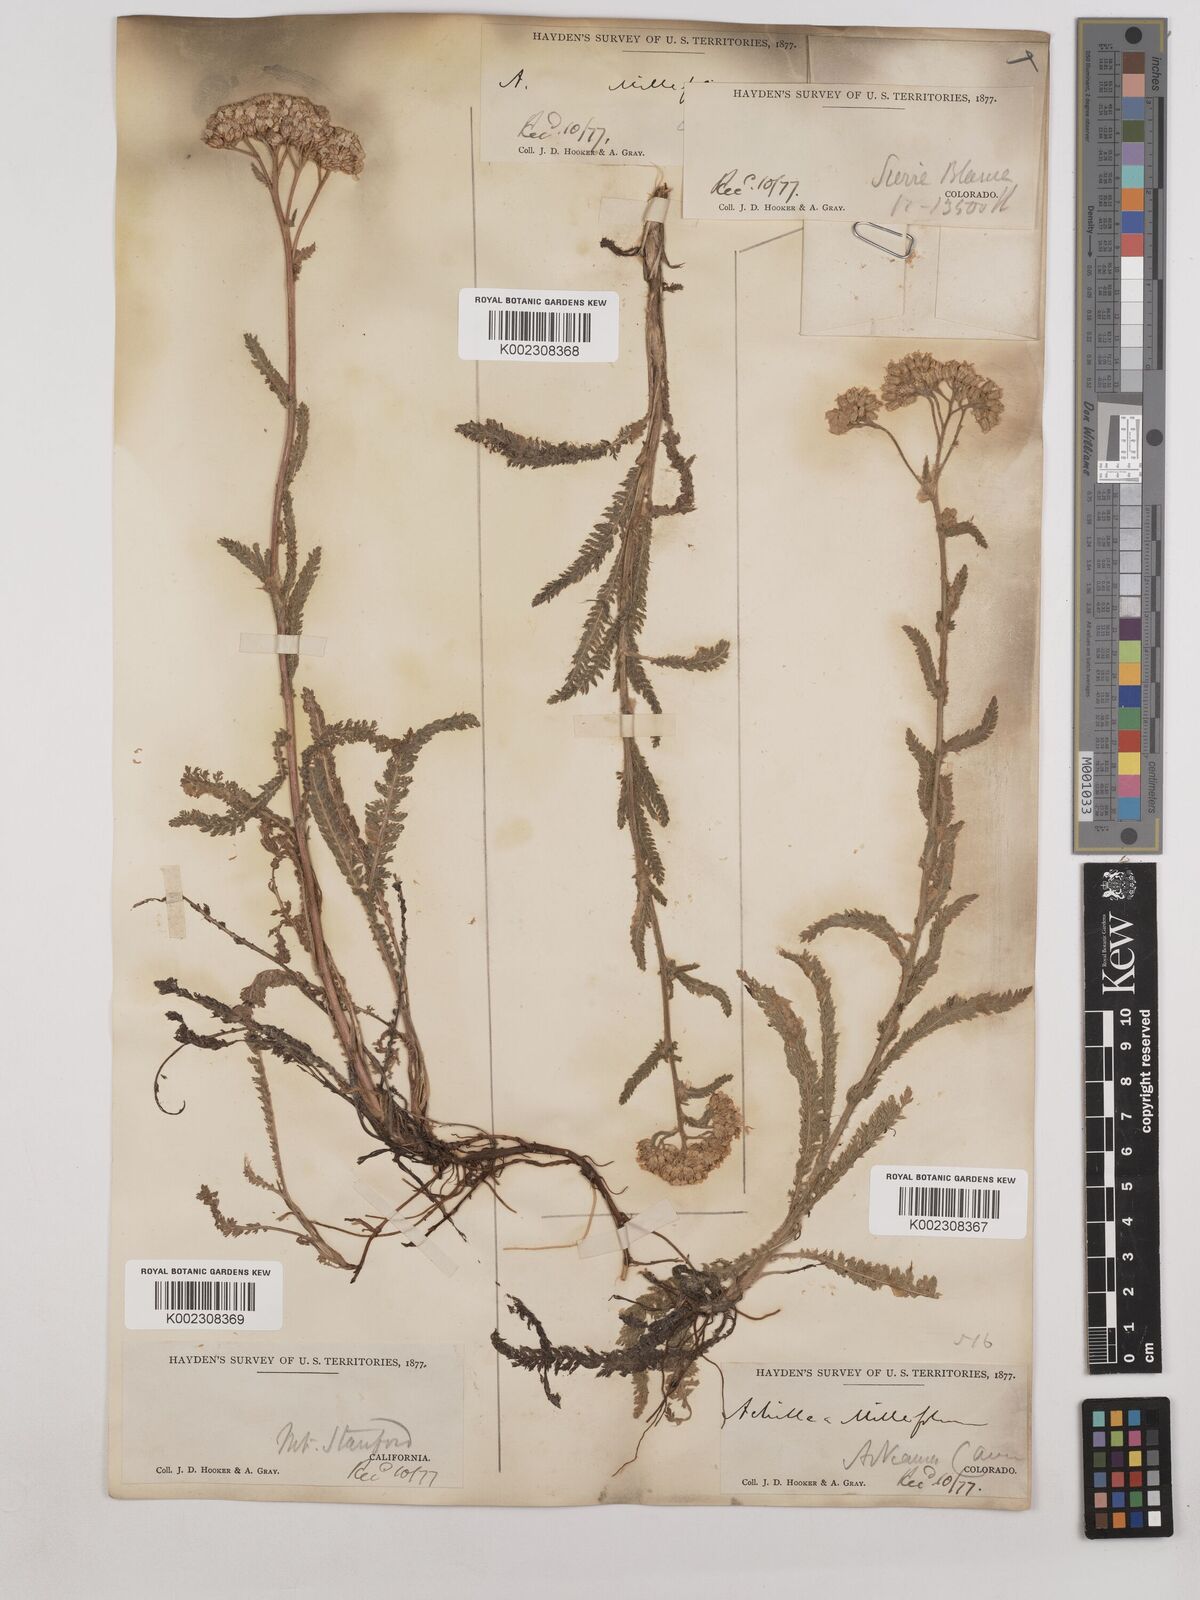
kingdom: Plantae
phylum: Tracheophyta
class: Magnoliopsida
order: Asterales
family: Asteraceae
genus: Achillea
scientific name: Achillea millefolium
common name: Yarrow
